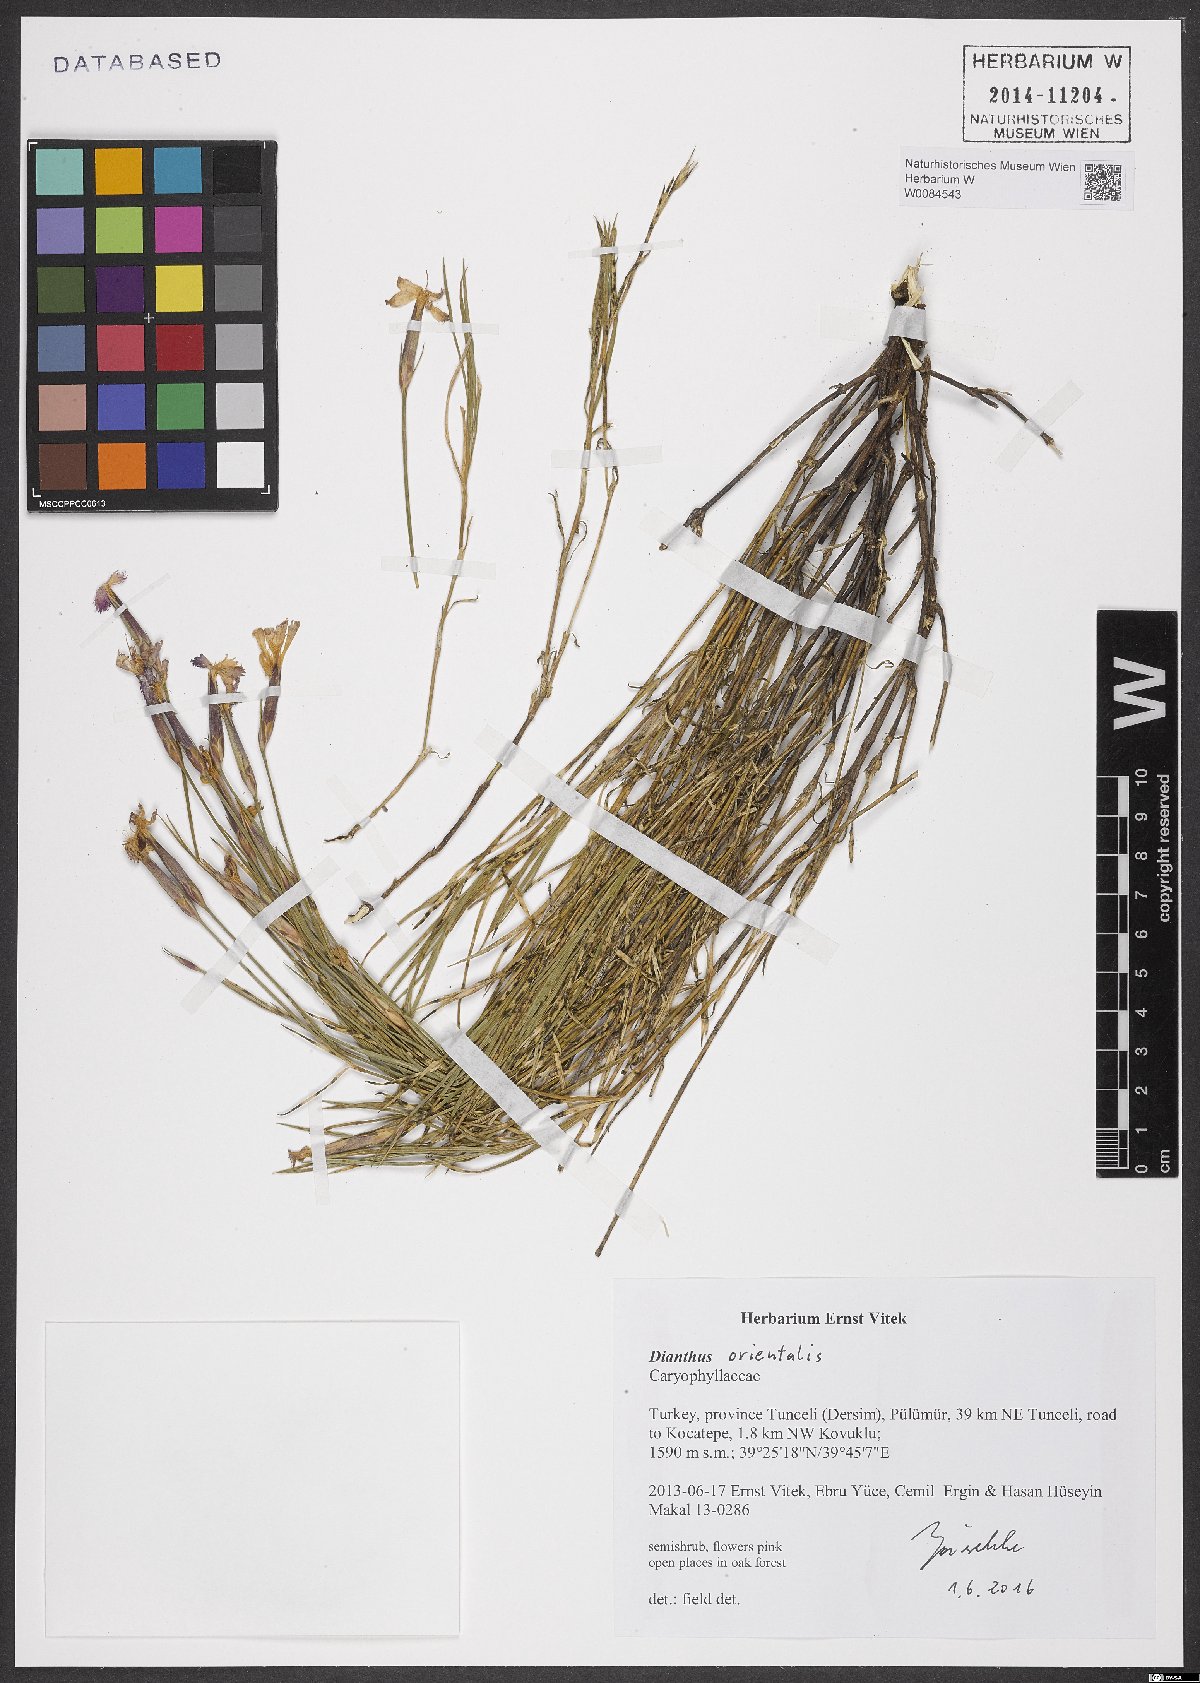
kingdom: Plantae
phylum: Tracheophyta
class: Magnoliopsida
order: Caryophyllales
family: Caryophyllaceae
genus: Dianthus
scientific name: Dianthus orientalis
